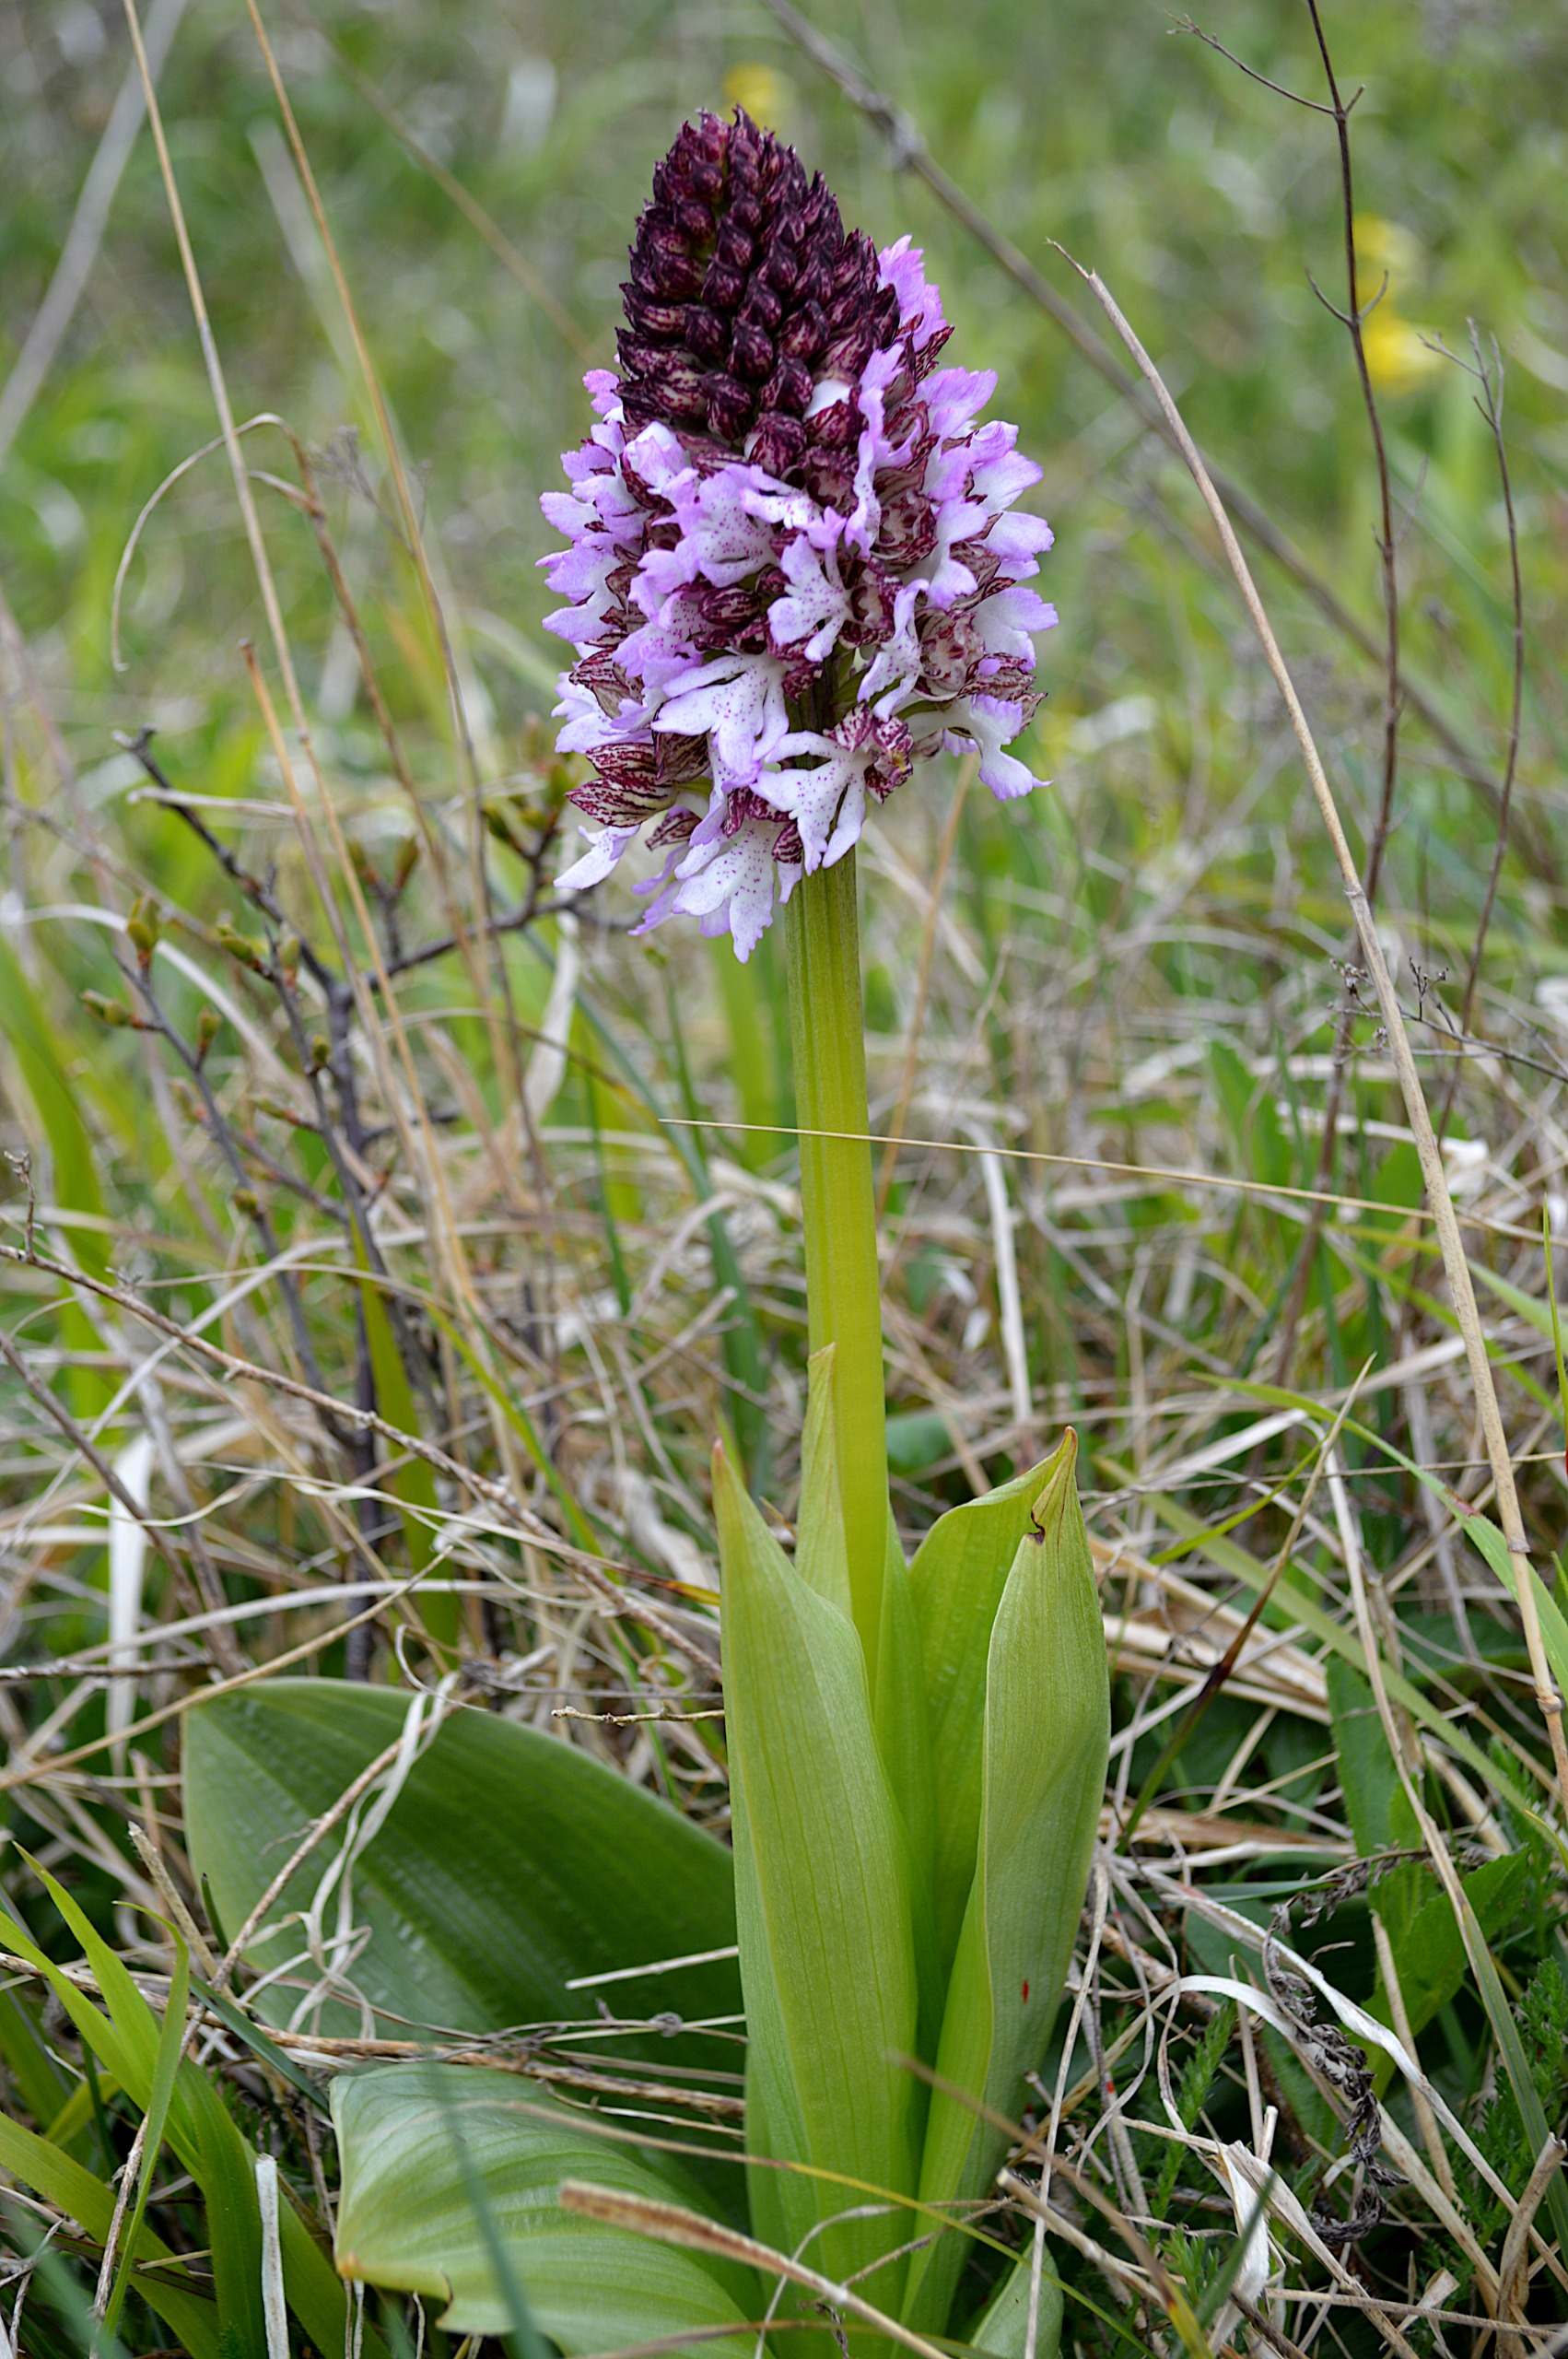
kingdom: Plantae
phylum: Tracheophyta
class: Liliopsida
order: Asparagales
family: Orchidaceae
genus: Orchis
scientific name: Orchis purpurea
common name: Stor gøgeurt
